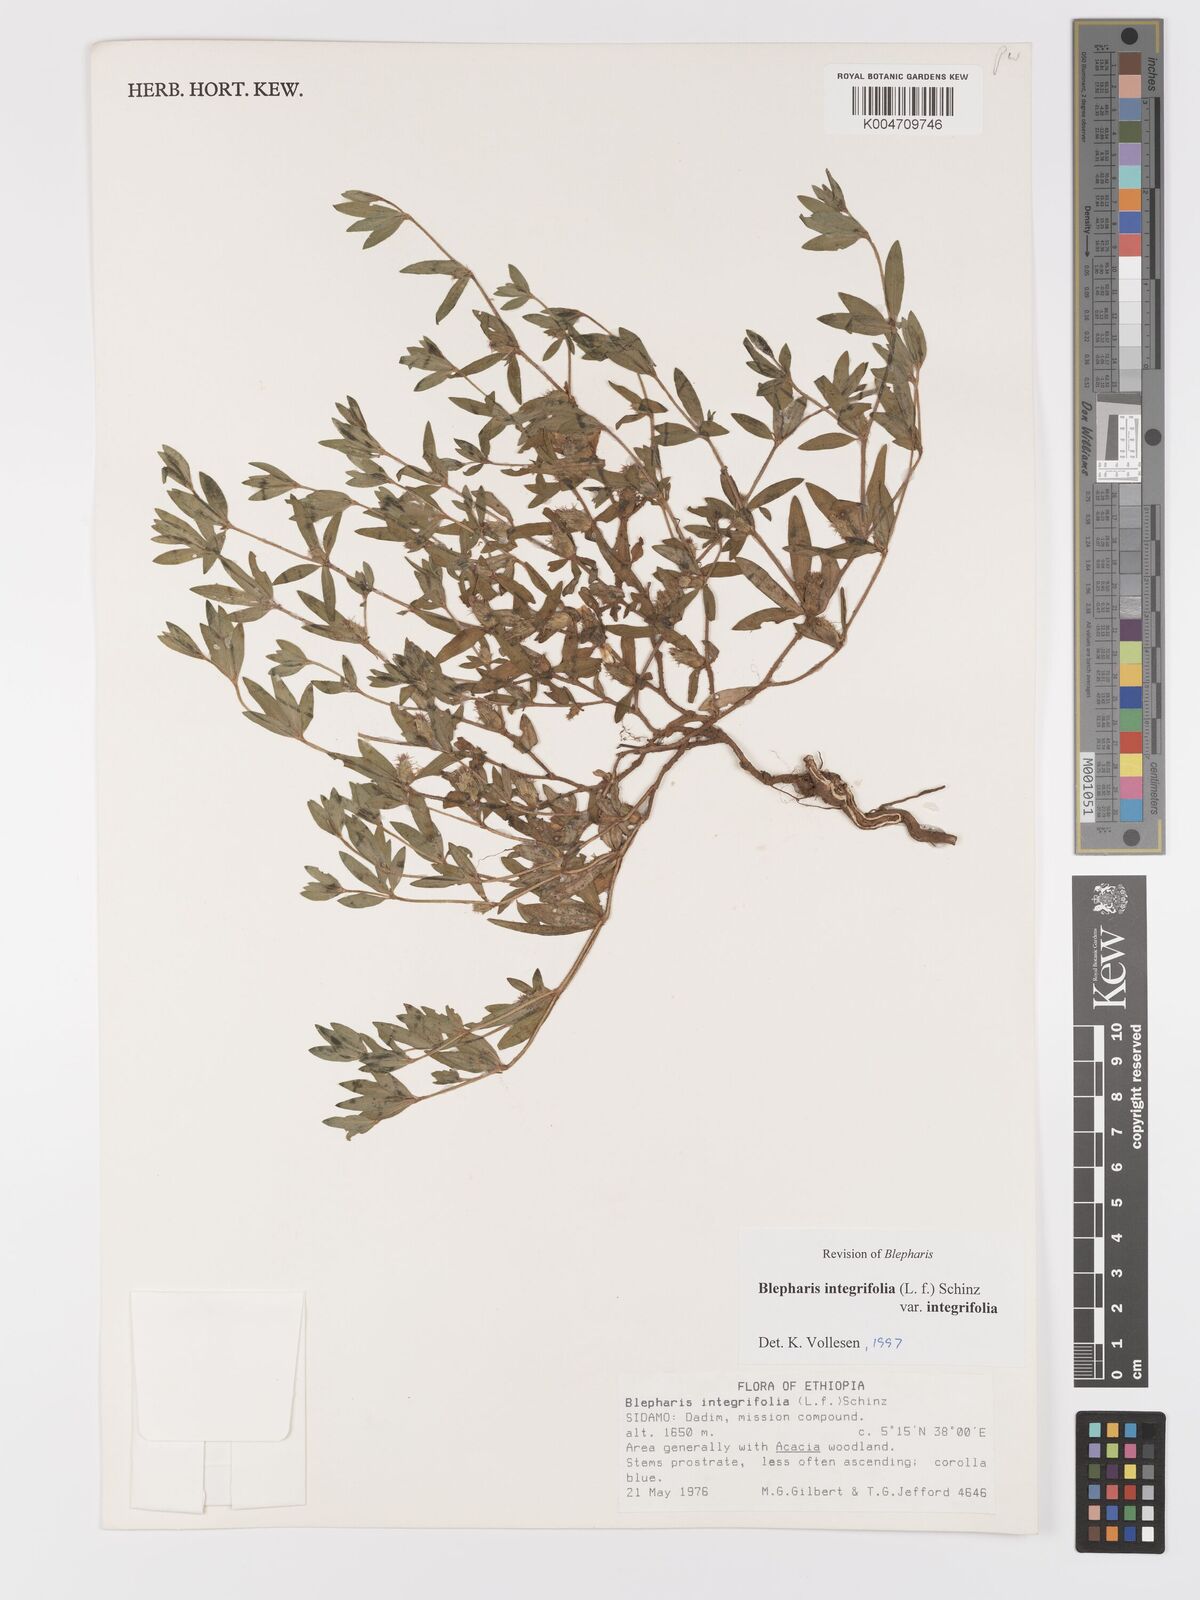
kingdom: Plantae
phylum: Tracheophyta
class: Magnoliopsida
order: Lamiales
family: Acanthaceae
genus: Blepharis
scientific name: Blepharis integrifolia
